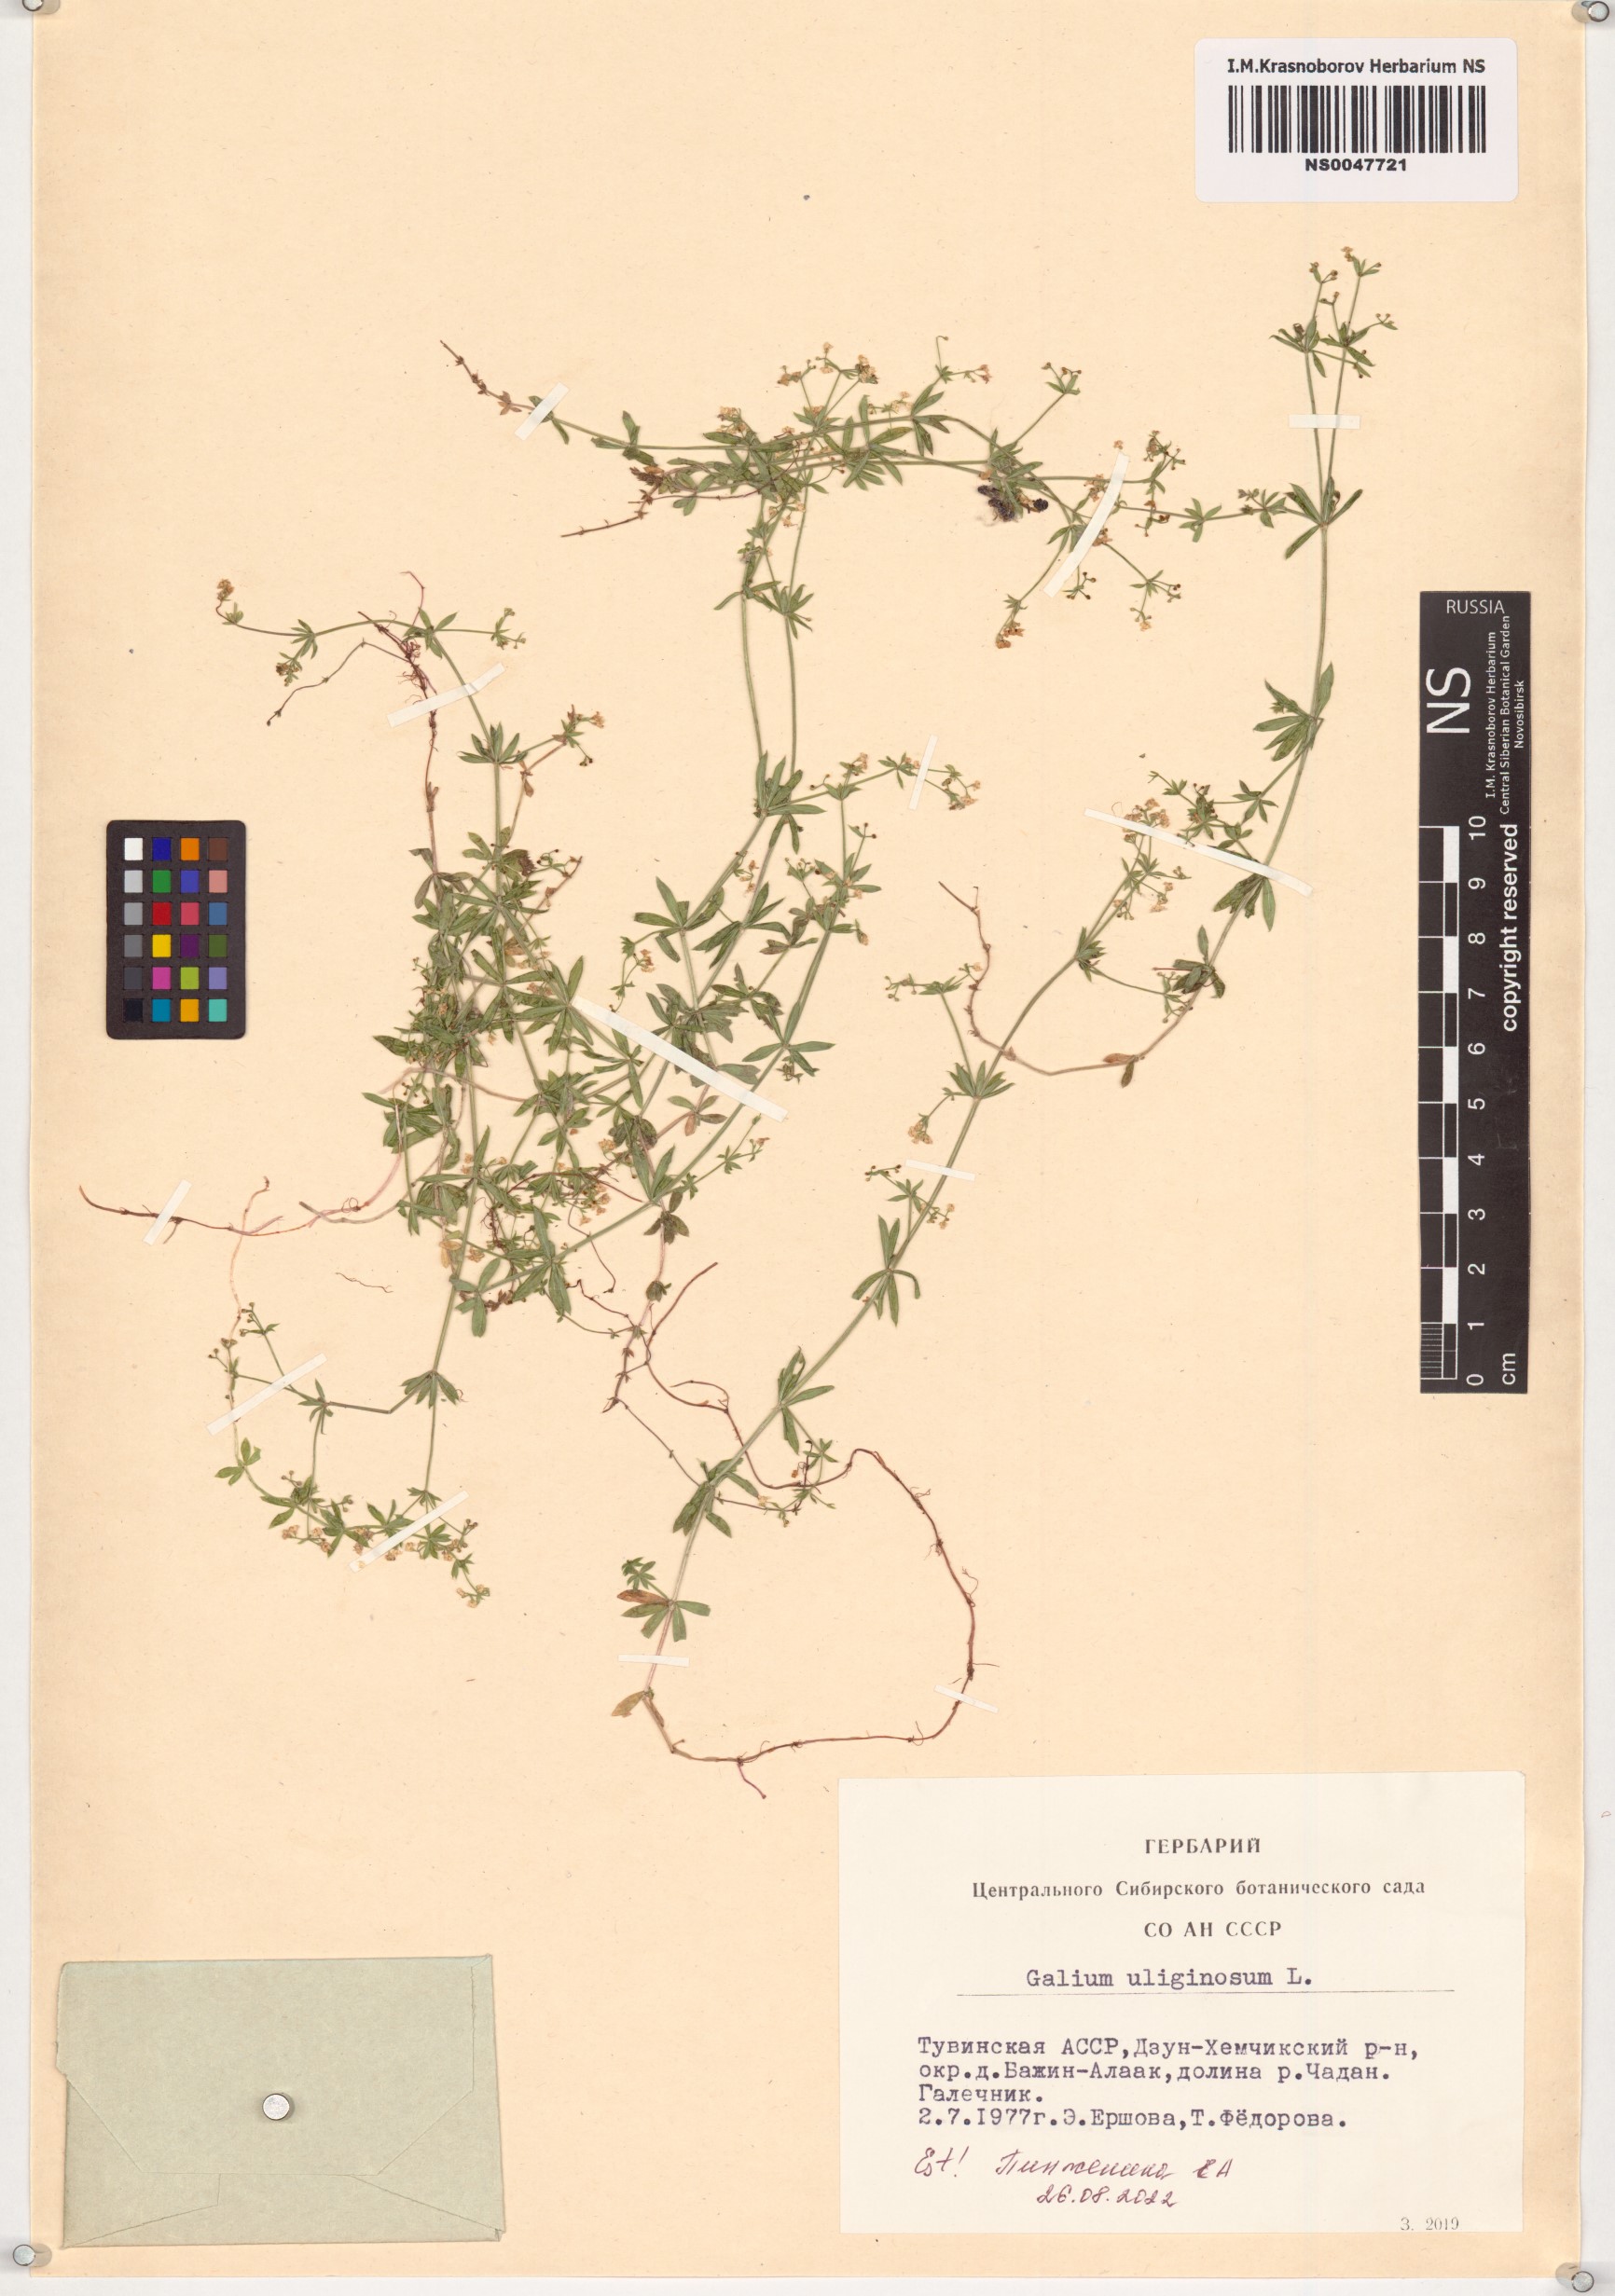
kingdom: Plantae
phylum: Tracheophyta
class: Magnoliopsida
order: Gentianales
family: Rubiaceae
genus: Galium
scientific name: Galium uliginosum
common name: Fen bedstraw
